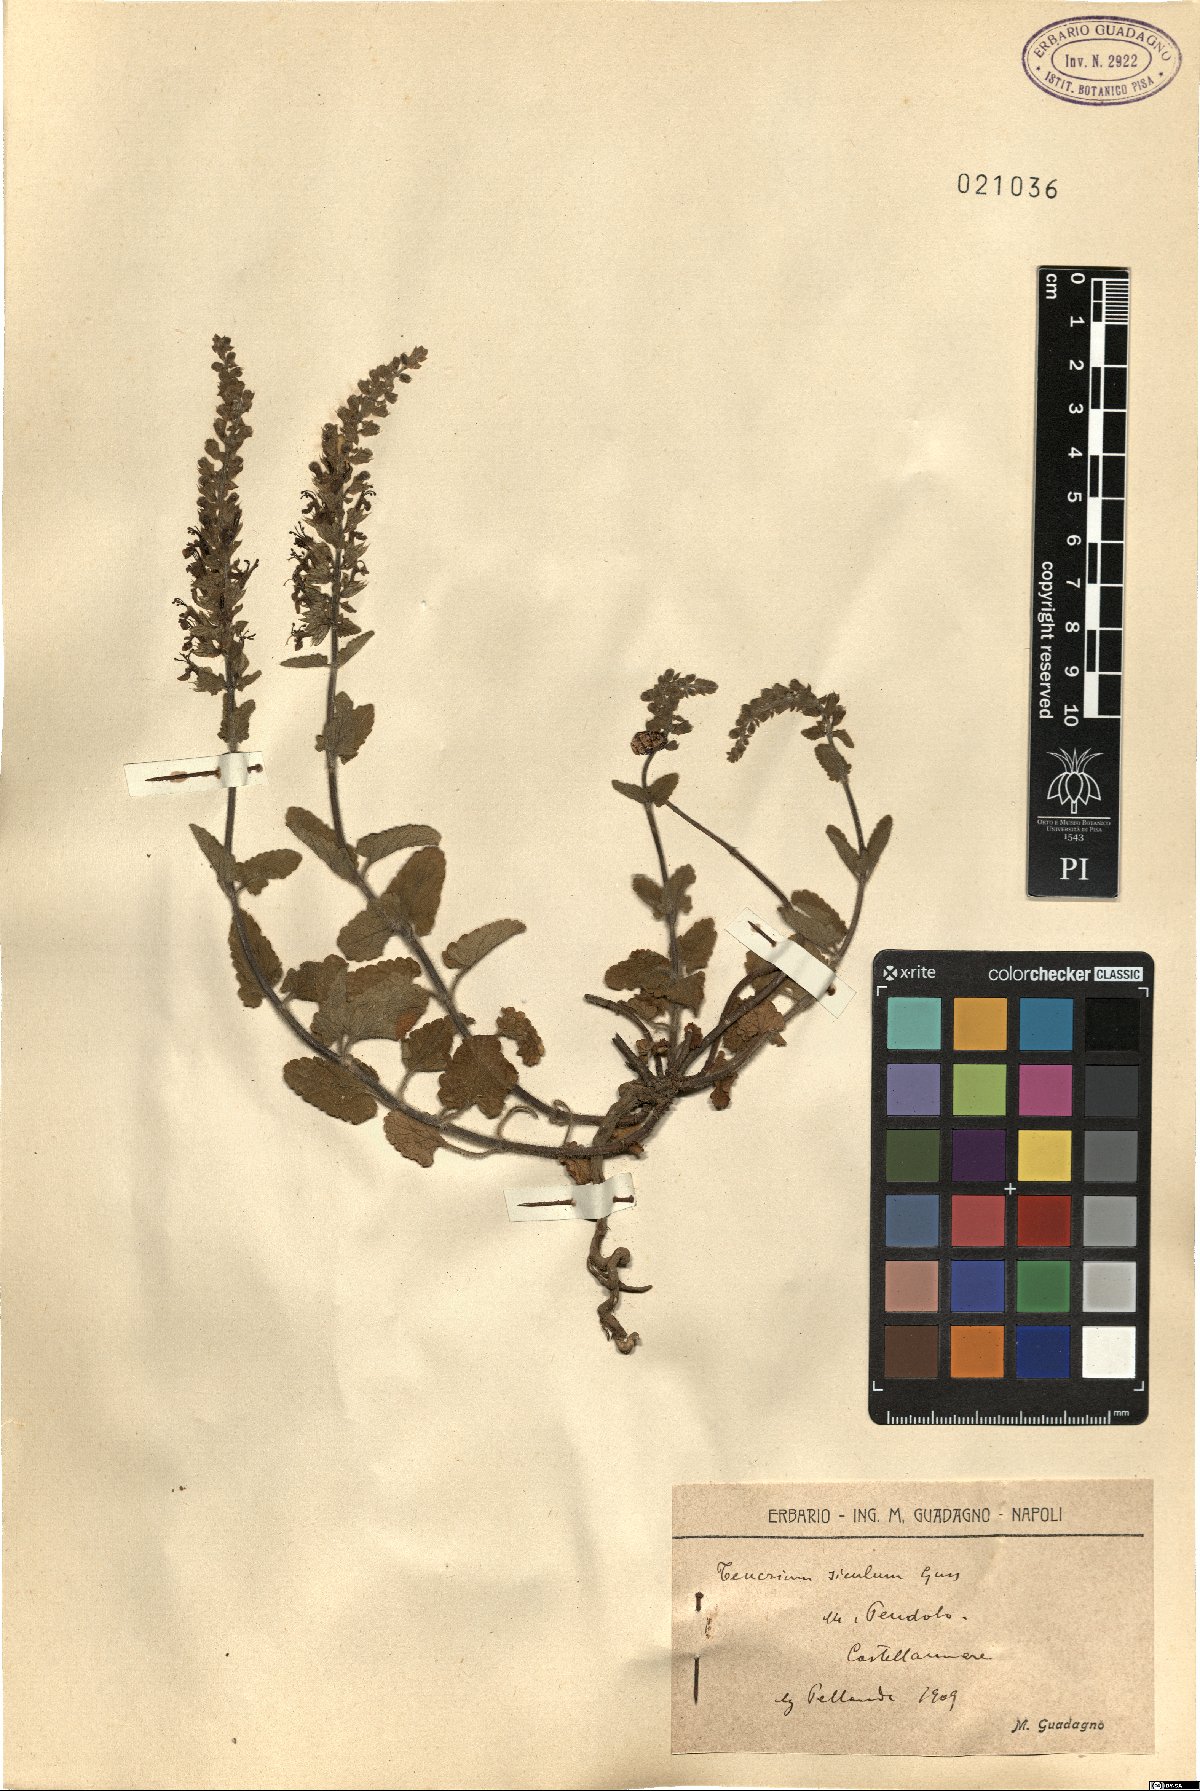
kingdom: Plantae
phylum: Tracheophyta
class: Magnoliopsida
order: Lamiales
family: Lamiaceae
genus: Teucrium
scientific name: Teucrium siculum
